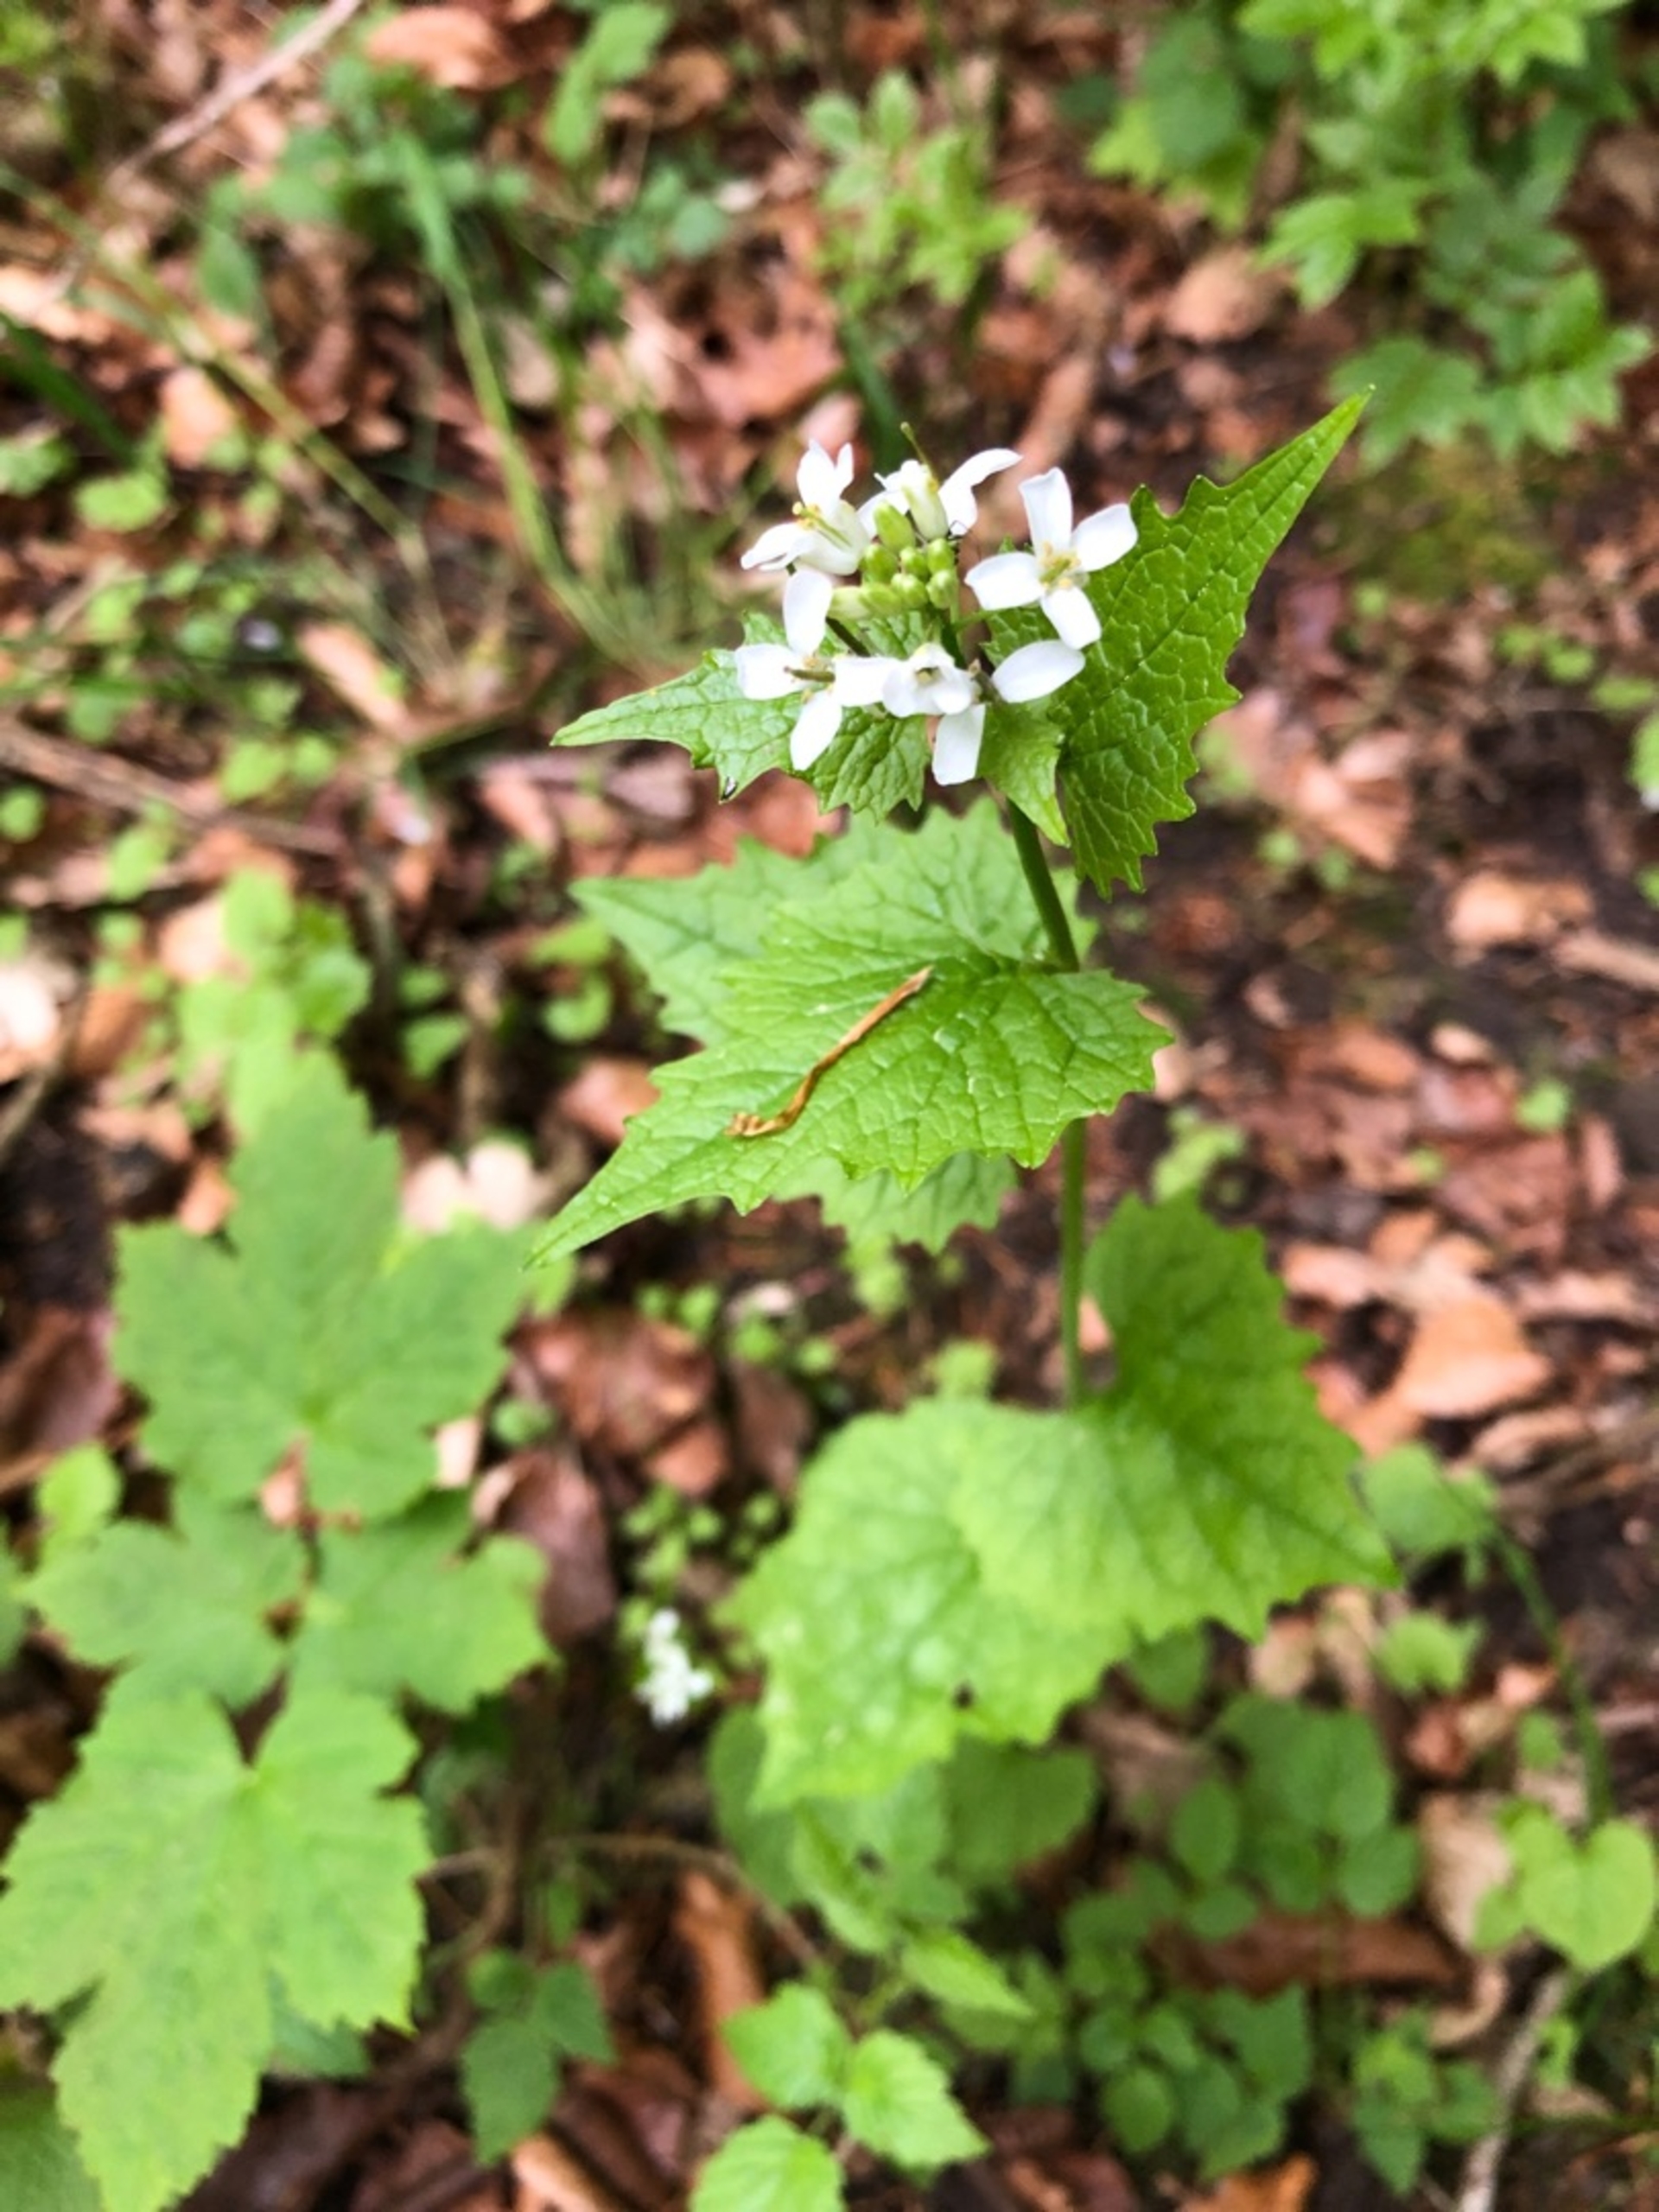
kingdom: Plantae
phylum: Tracheophyta
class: Magnoliopsida
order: Brassicales
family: Brassicaceae
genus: Alliaria
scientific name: Alliaria petiolata
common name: Løgkarse
